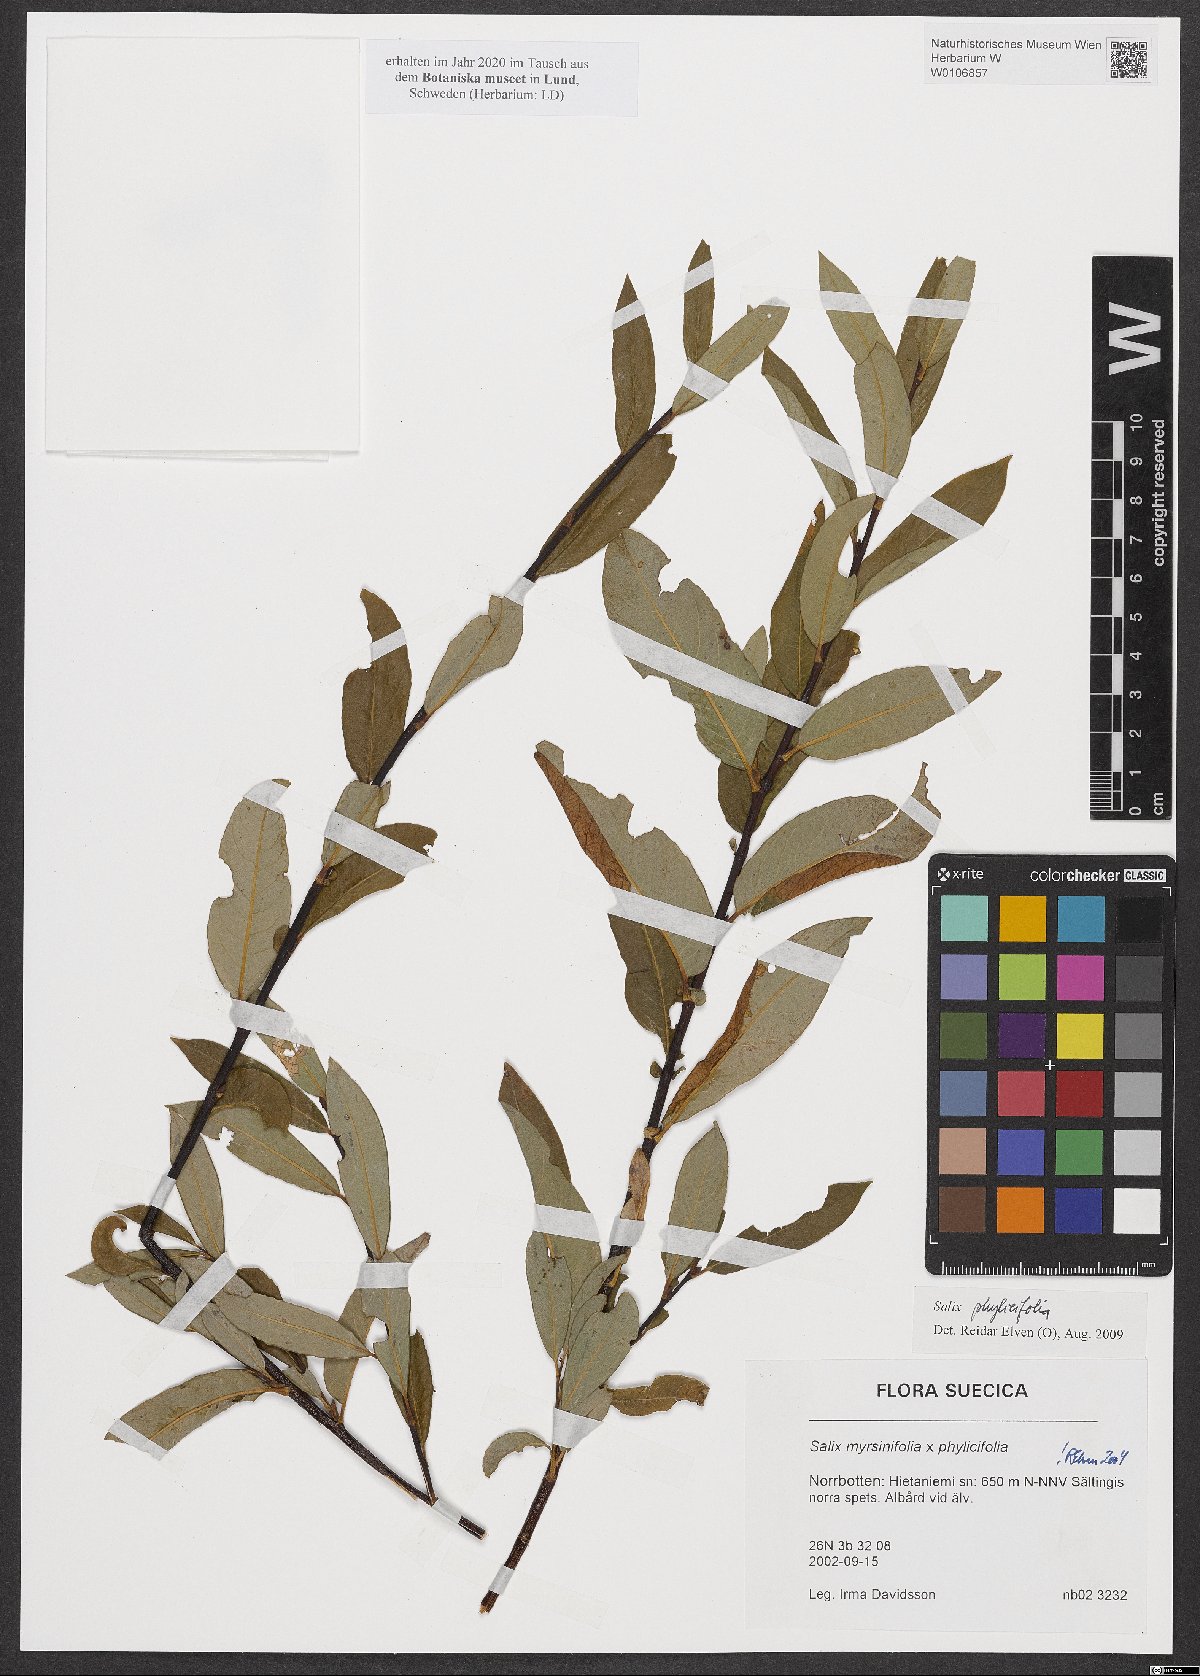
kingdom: Plantae
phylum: Tracheophyta
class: Magnoliopsida
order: Malpighiales
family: Salicaceae
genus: Salix
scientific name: Salix phylicifolia
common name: Tea-leaved willow
